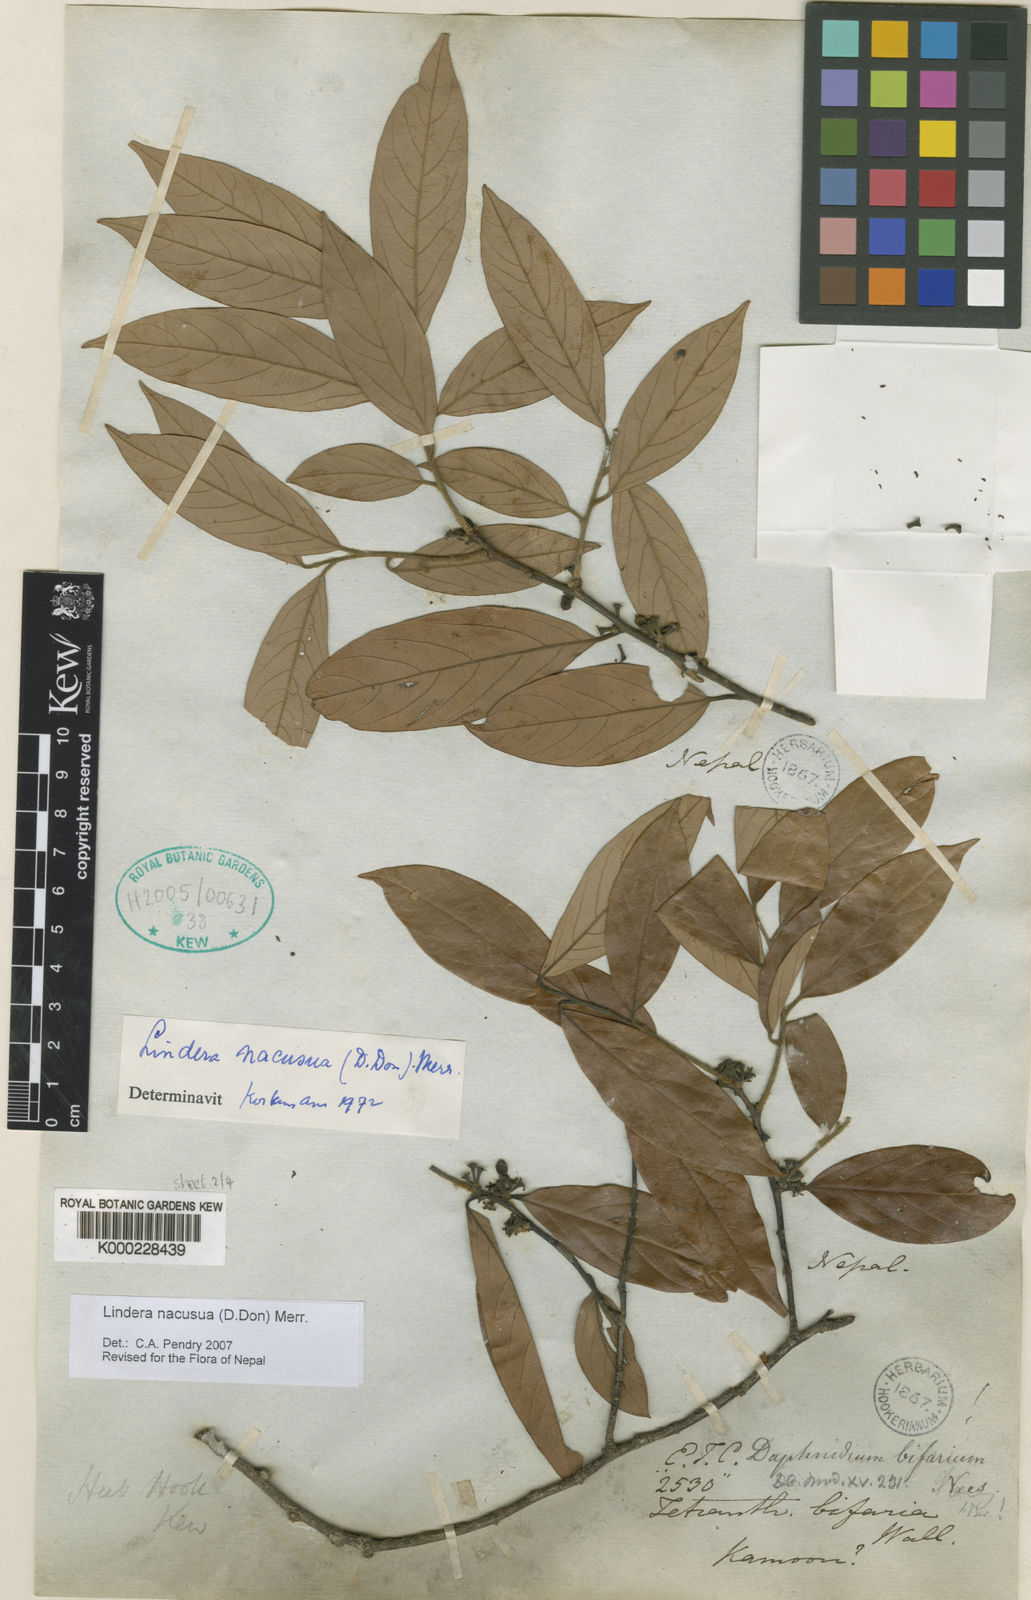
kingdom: Plantae
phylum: Tracheophyta
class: Magnoliopsida
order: Laurales
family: Lauraceae
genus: Lindera
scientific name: Lindera nacusua
